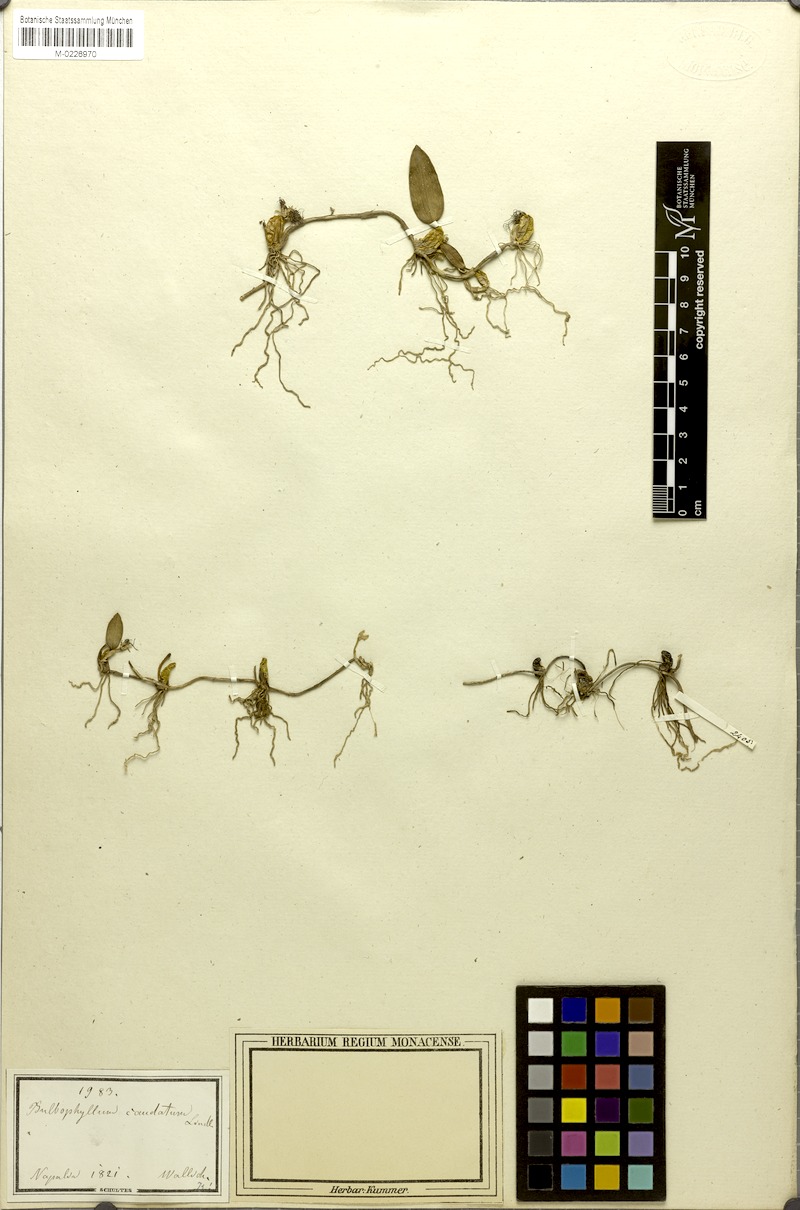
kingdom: Plantae
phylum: Tracheophyta
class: Liliopsida
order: Asparagales
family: Orchidaceae
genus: Bulbophyllum
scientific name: Bulbophyllum sterile
